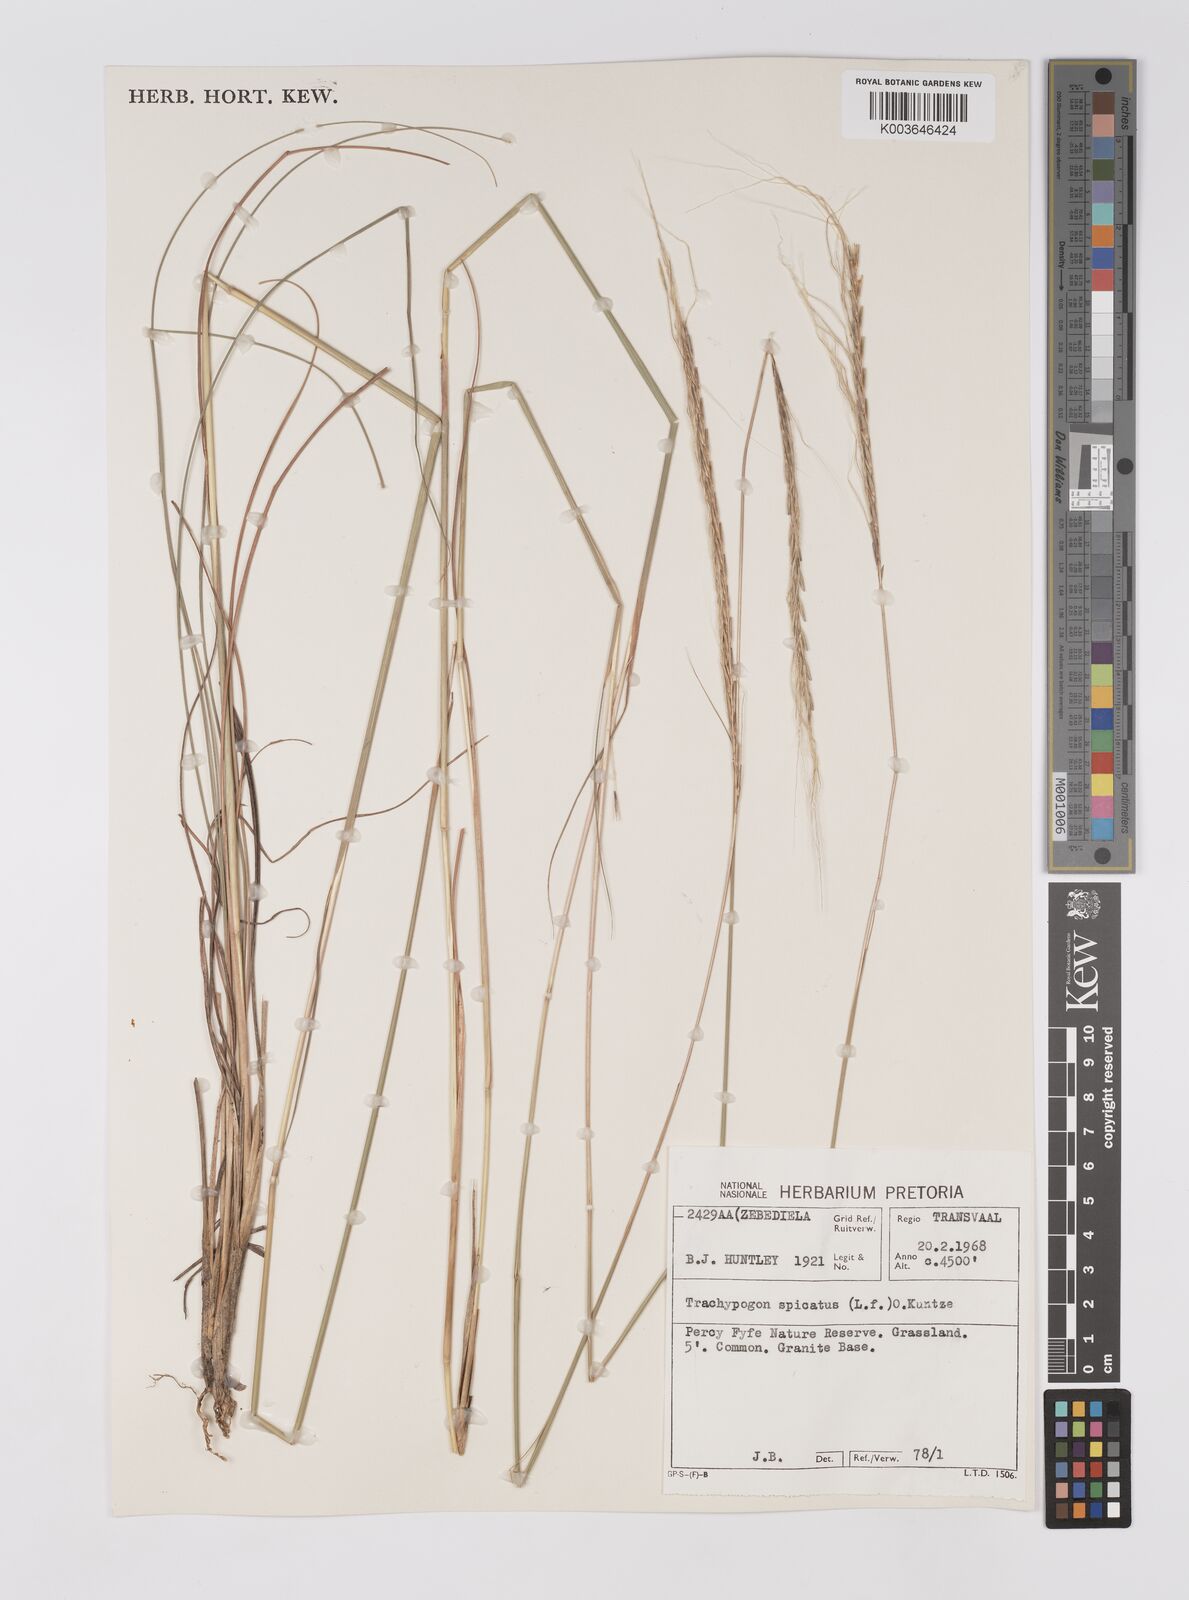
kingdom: Plantae
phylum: Tracheophyta
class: Liliopsida
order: Poales
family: Poaceae
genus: Trachypogon
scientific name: Trachypogon spicatus
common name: Crinkle-awn
